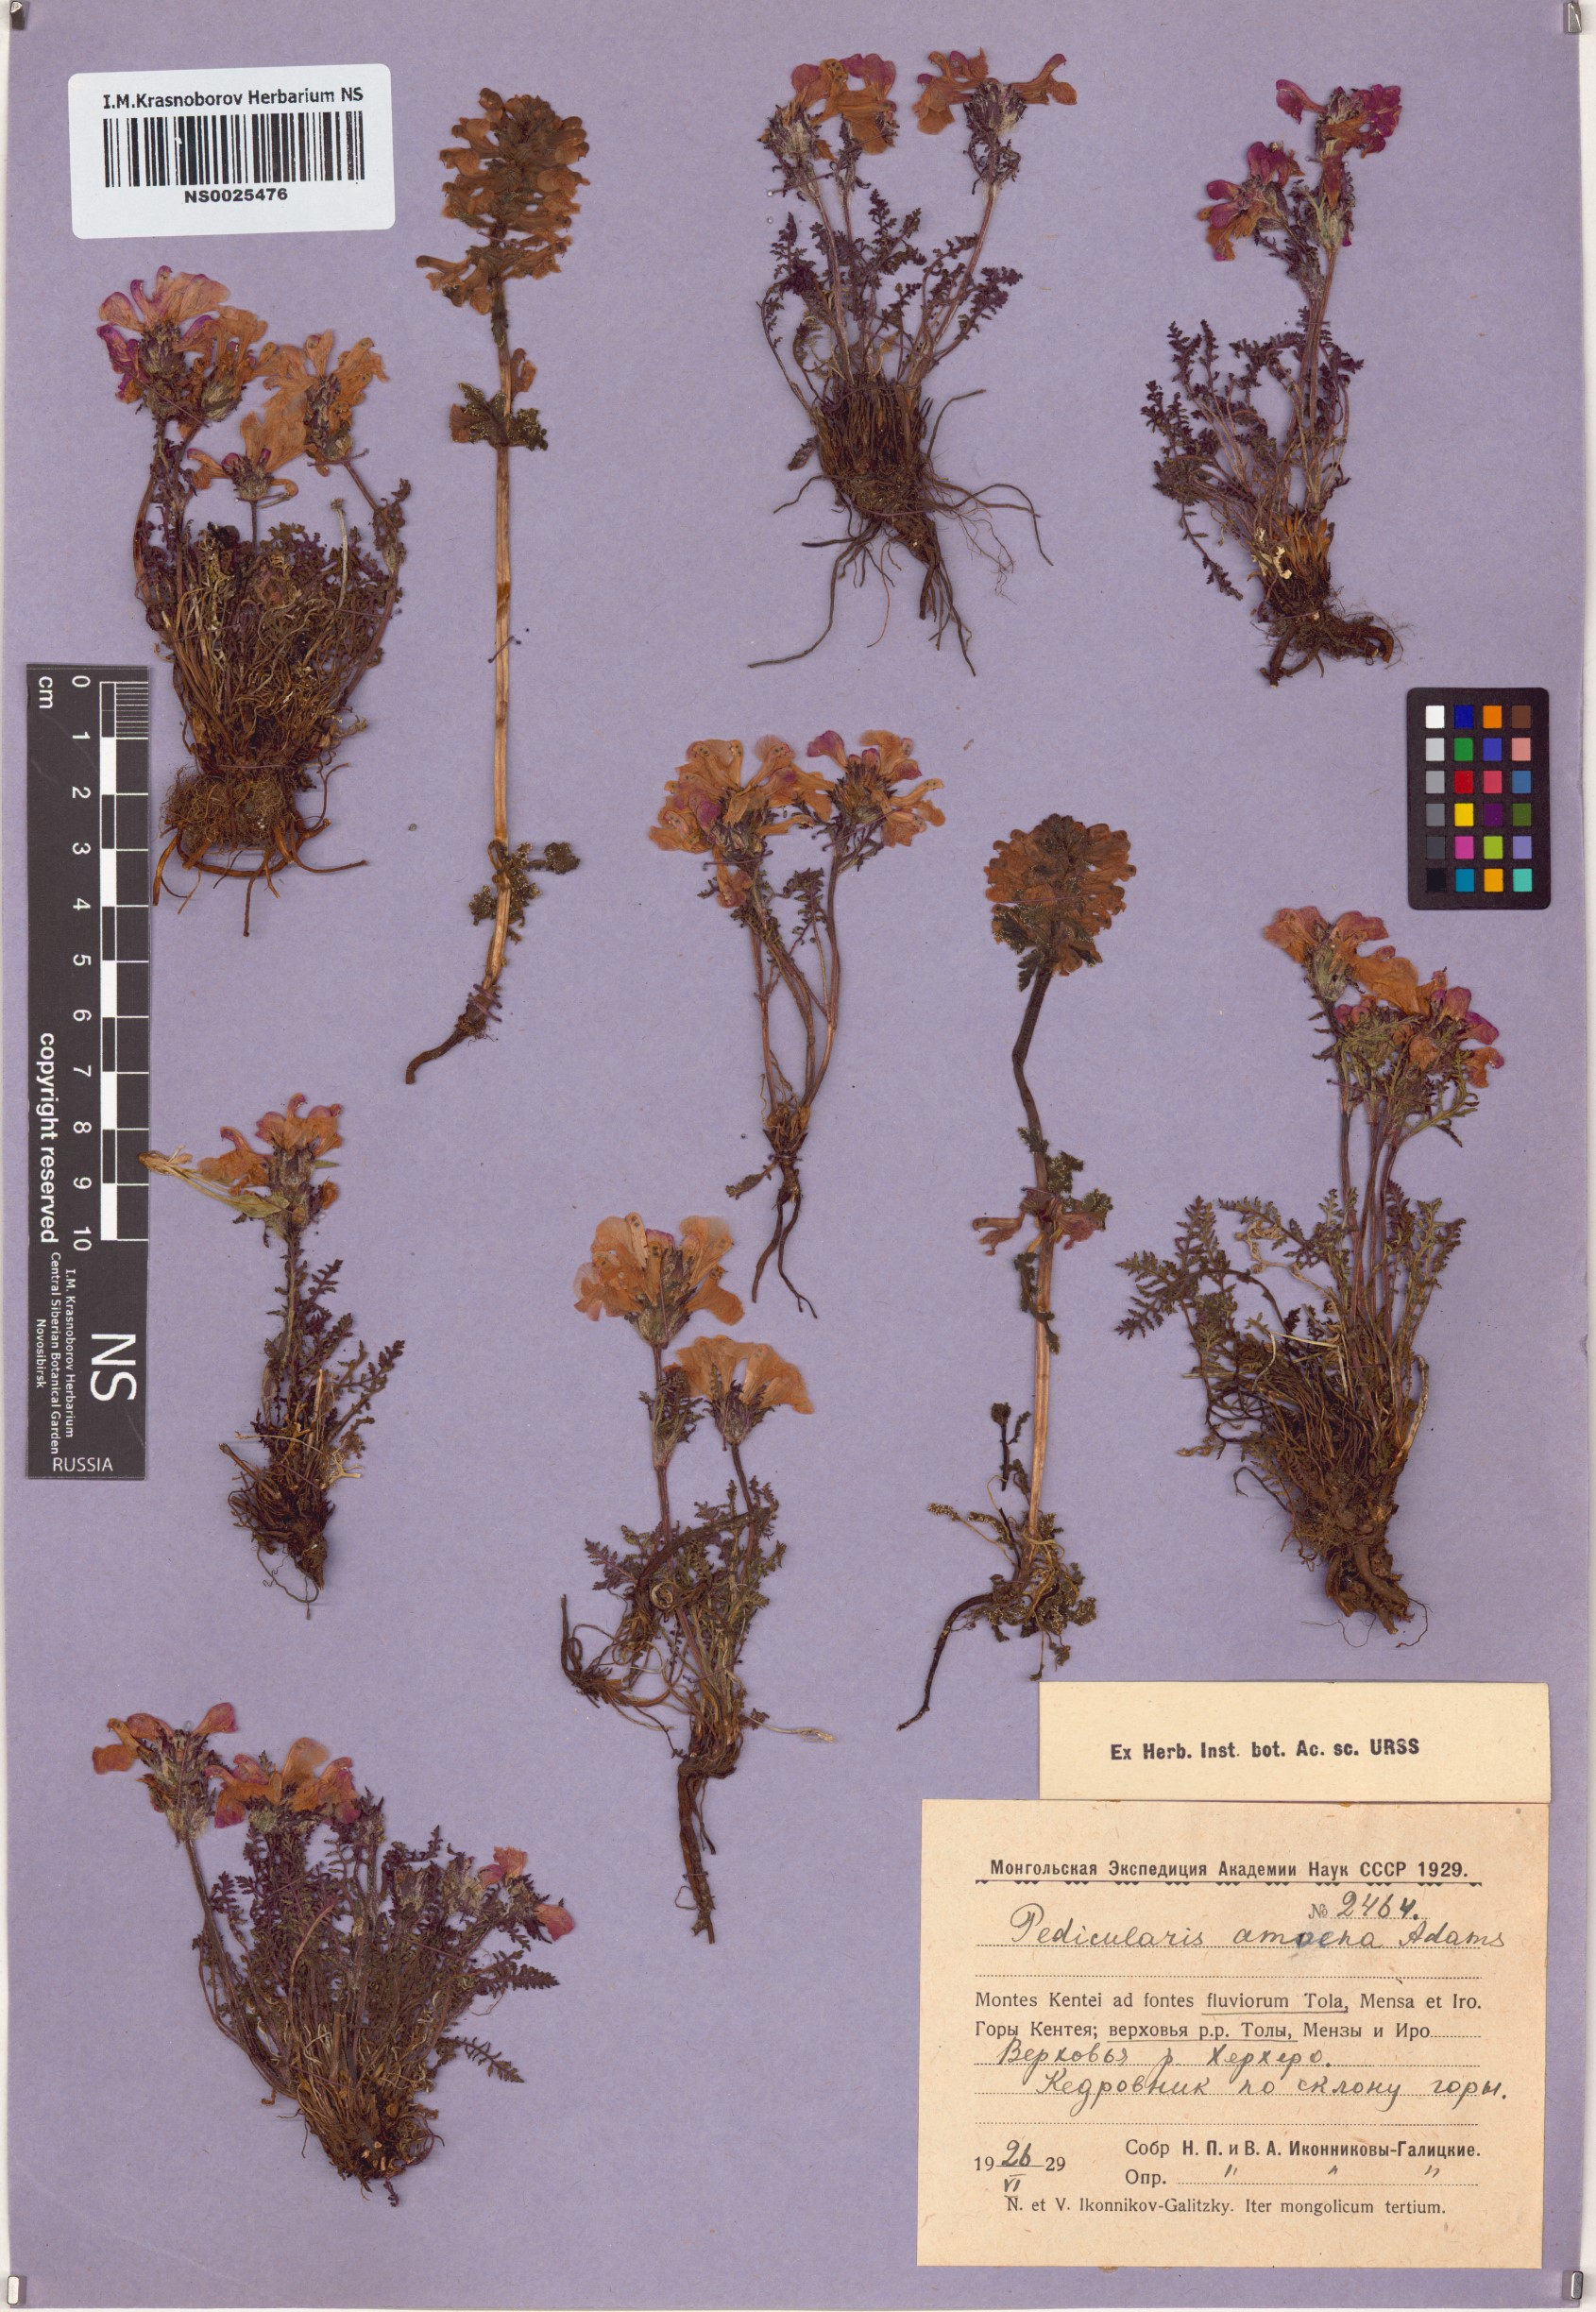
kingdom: Plantae
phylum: Tracheophyta
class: Magnoliopsida
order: Lamiales
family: Orobanchaceae
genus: Pedicularis
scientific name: Pedicularis amoena
